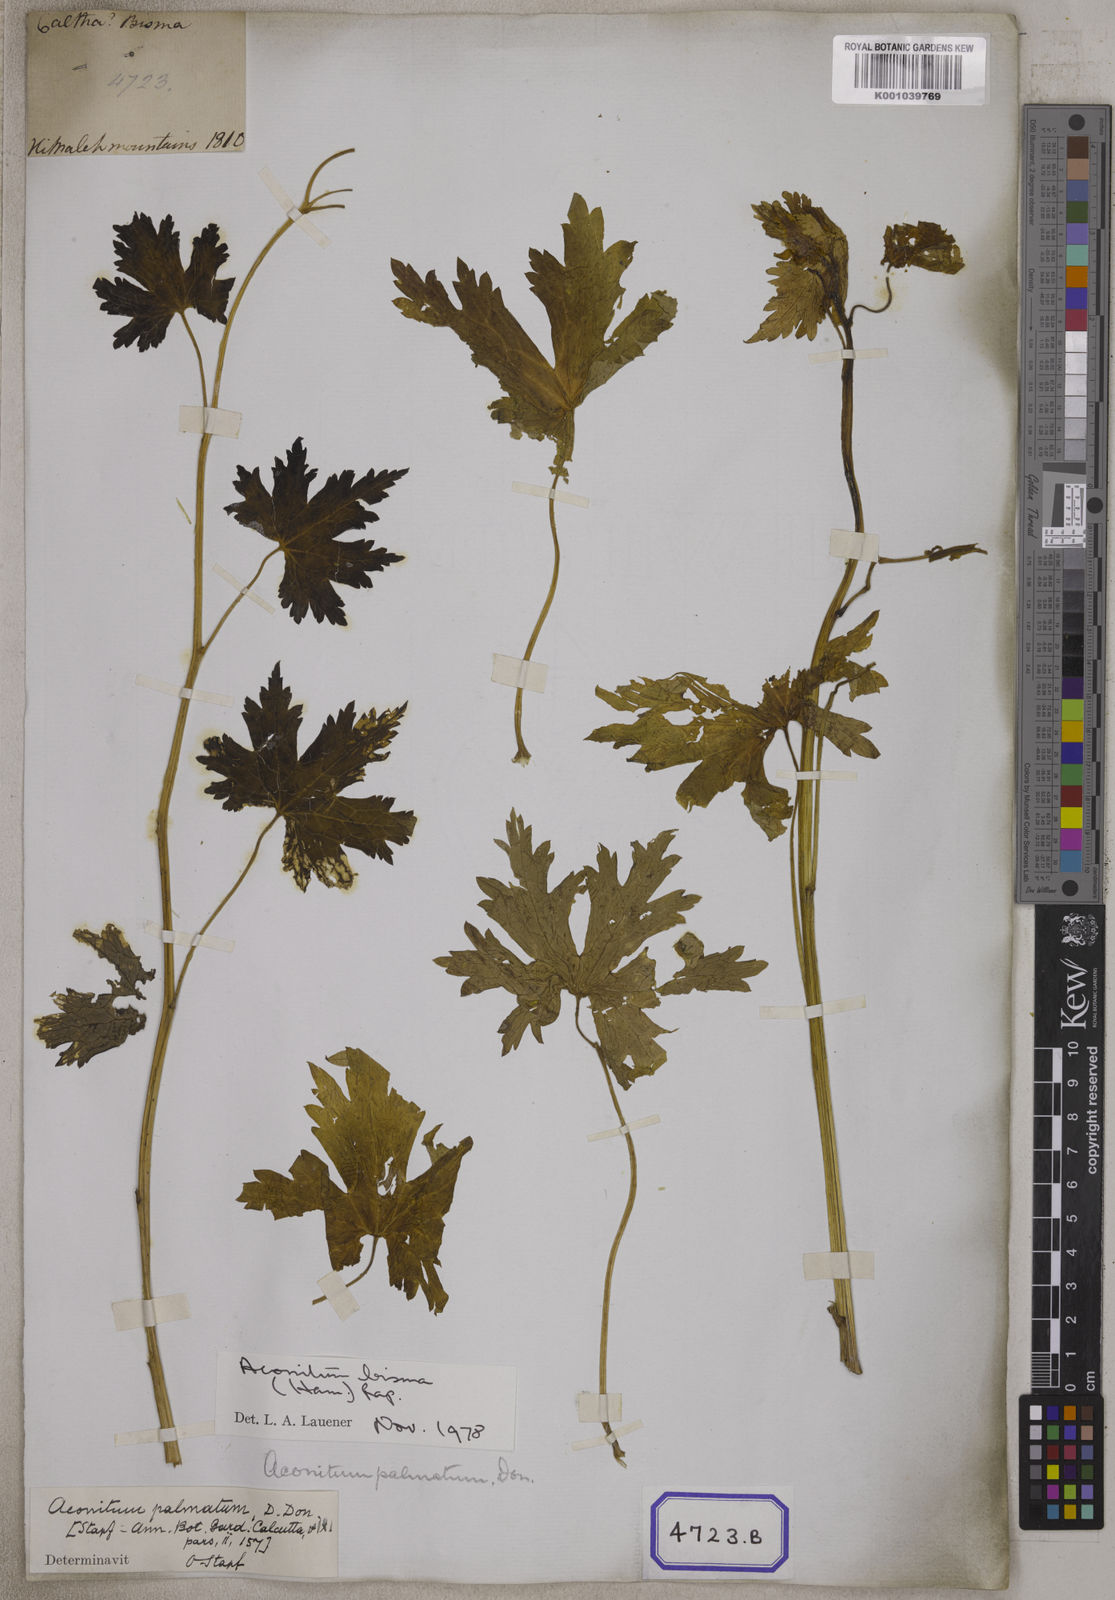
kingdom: Plantae
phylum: Tracheophyta
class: Magnoliopsida
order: Ranunculales
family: Ranunculaceae
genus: Aconitum
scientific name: Aconitum
